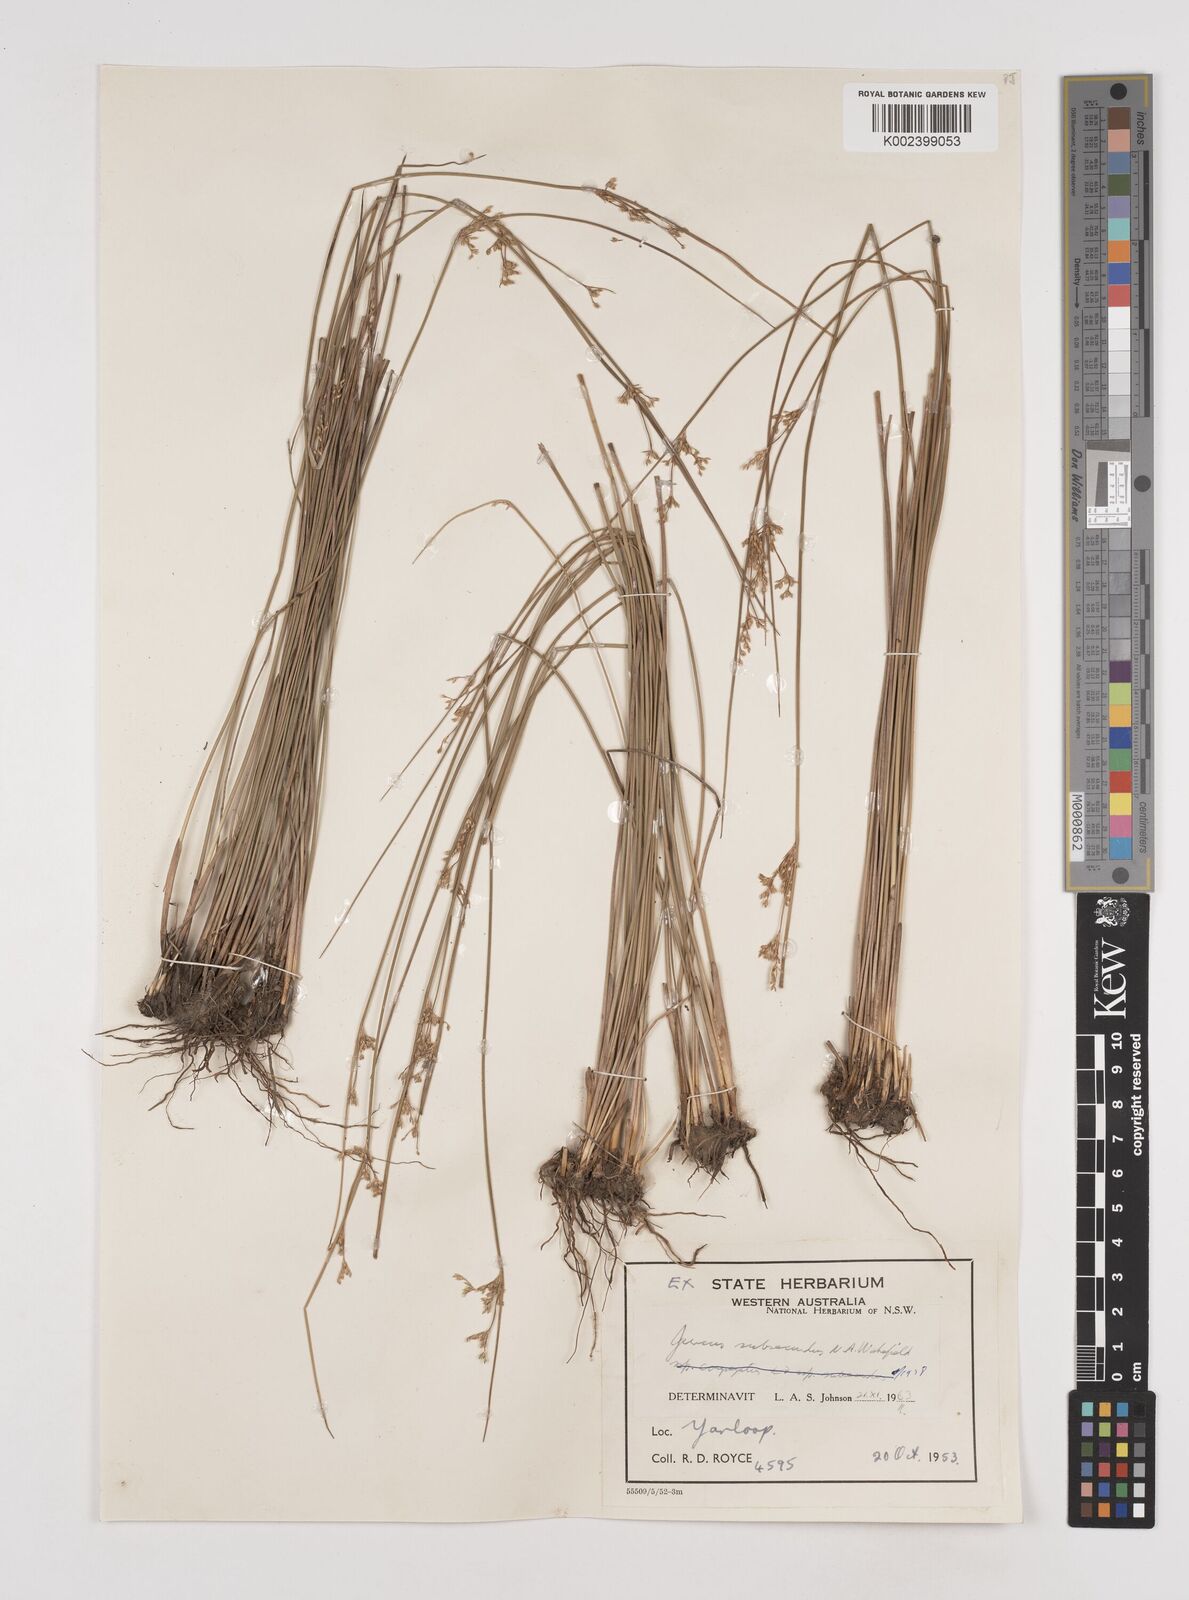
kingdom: Plantae
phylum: Tracheophyta
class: Liliopsida
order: Poales
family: Juncaceae
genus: Juncus
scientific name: Juncus subsecundus
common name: Fingered rush
